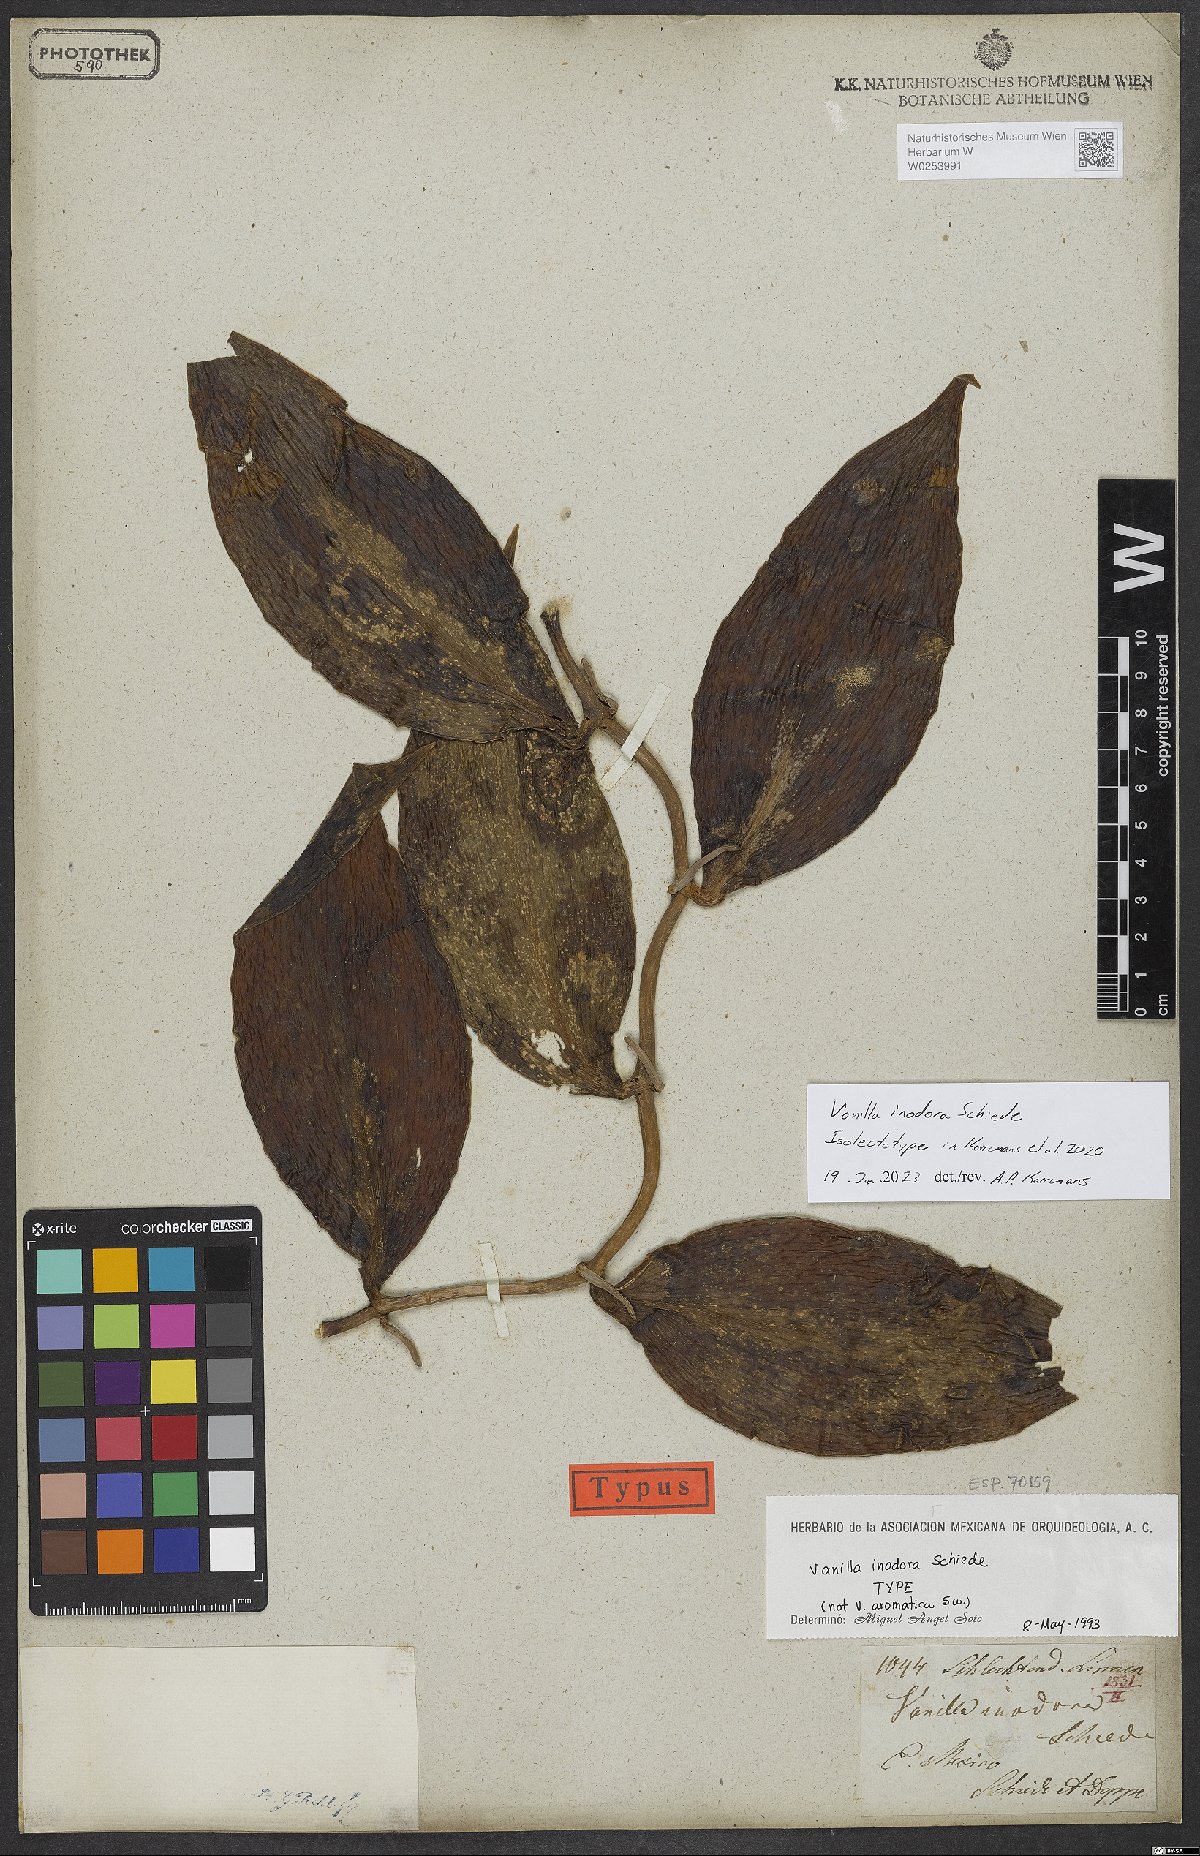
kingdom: Plantae
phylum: Tracheophyta
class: Liliopsida
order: Asparagales
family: Orchidaceae
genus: Vanilla
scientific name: Vanilla
